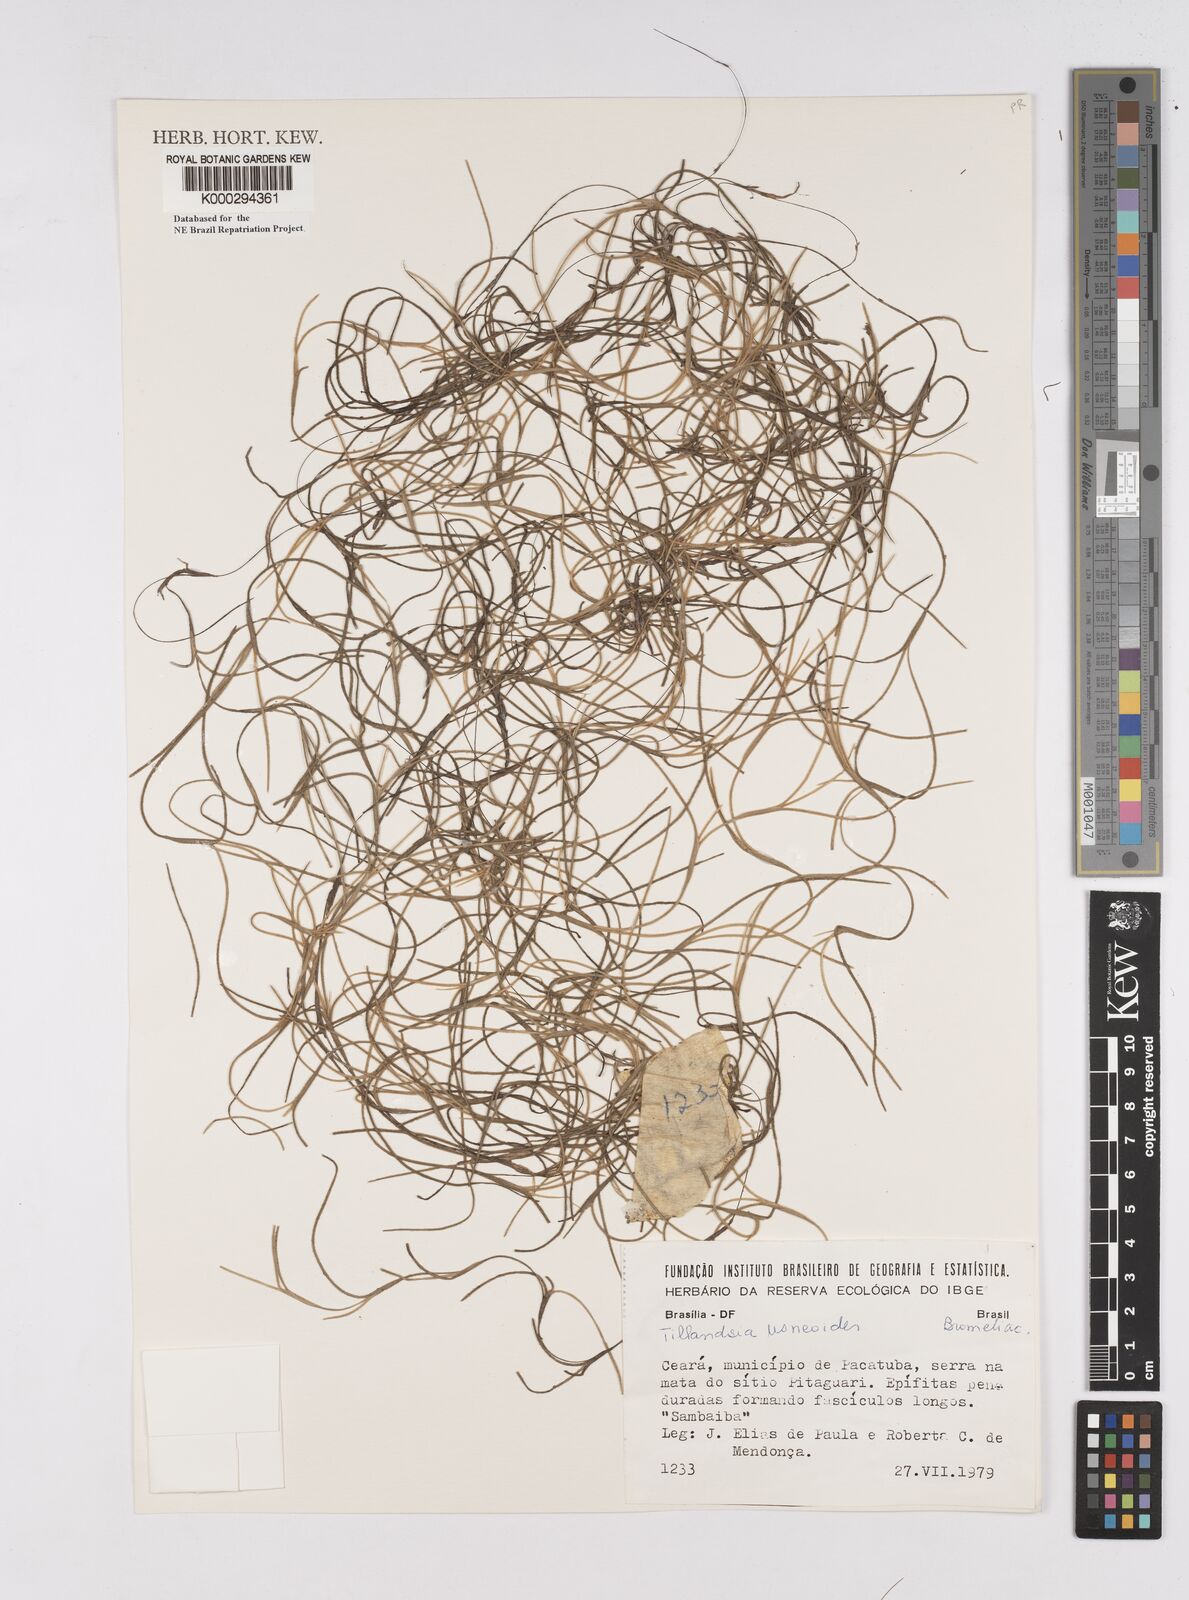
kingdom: Plantae
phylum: Tracheophyta
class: Liliopsida
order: Poales
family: Bromeliaceae
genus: Tillandsia
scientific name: Tillandsia usneoides
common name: Spanish moss
